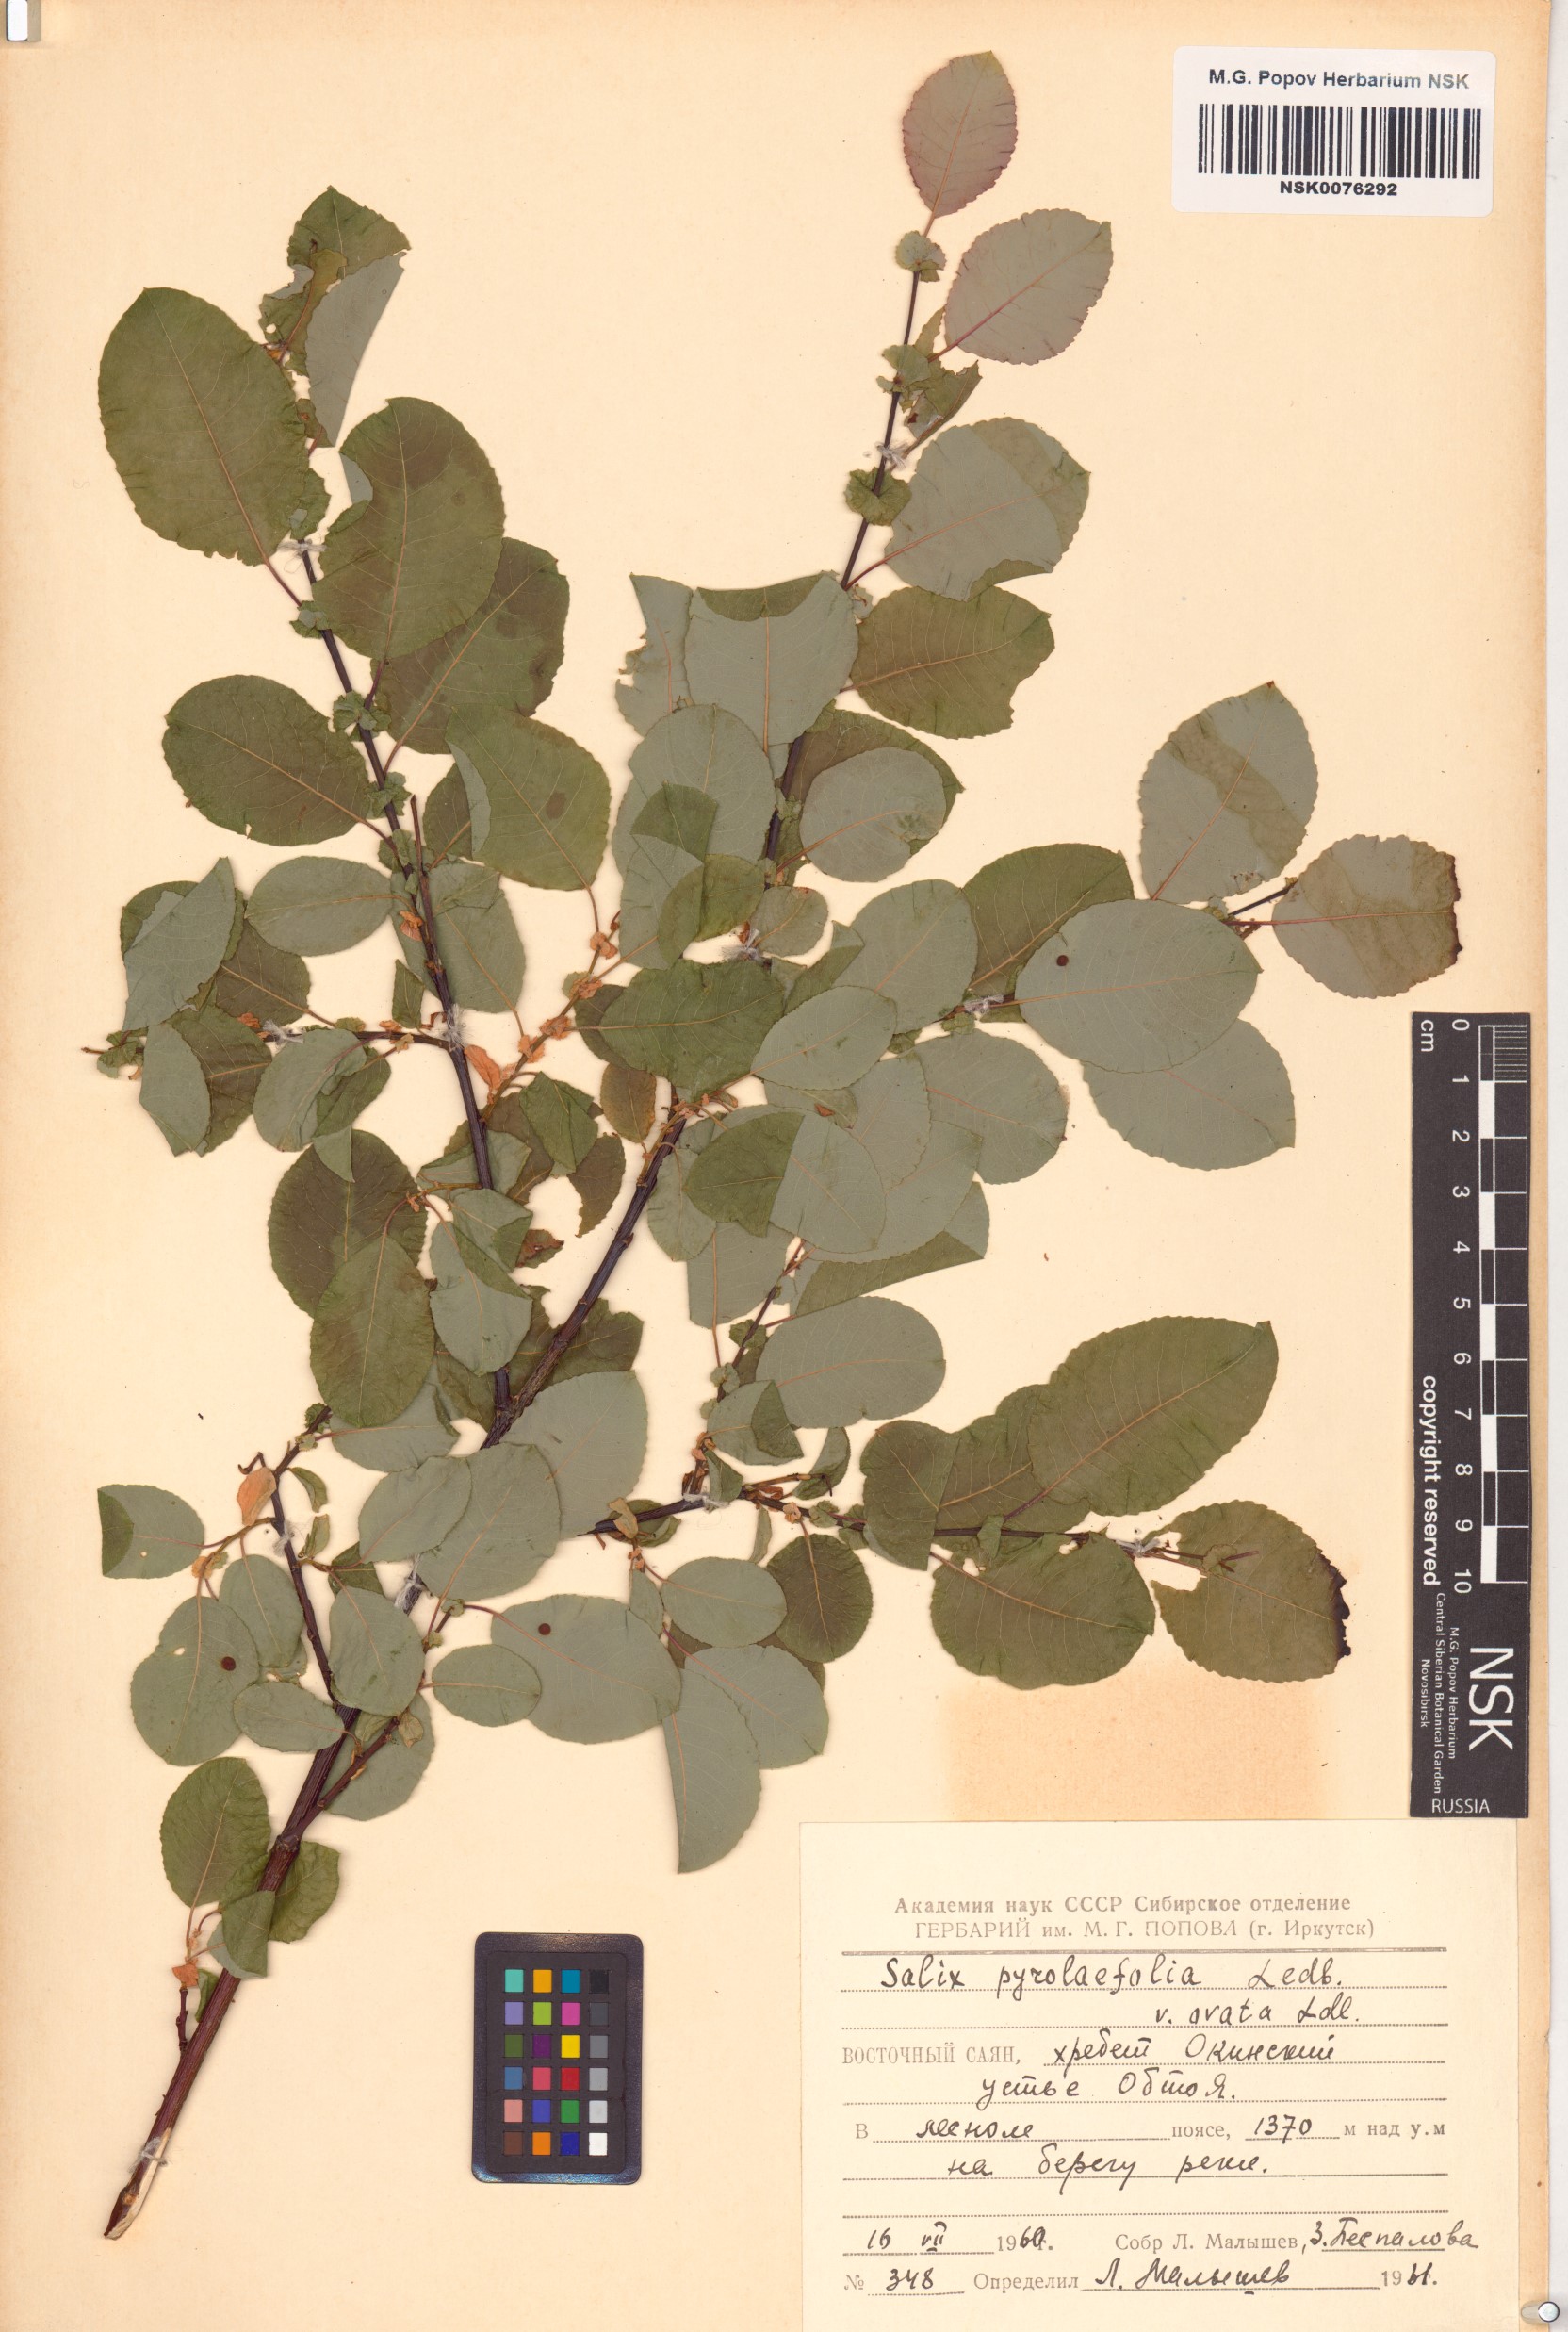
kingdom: Plantae
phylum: Tracheophyta
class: Magnoliopsida
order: Malpighiales
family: Salicaceae
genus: Salix
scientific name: Salix pyrolifolia
